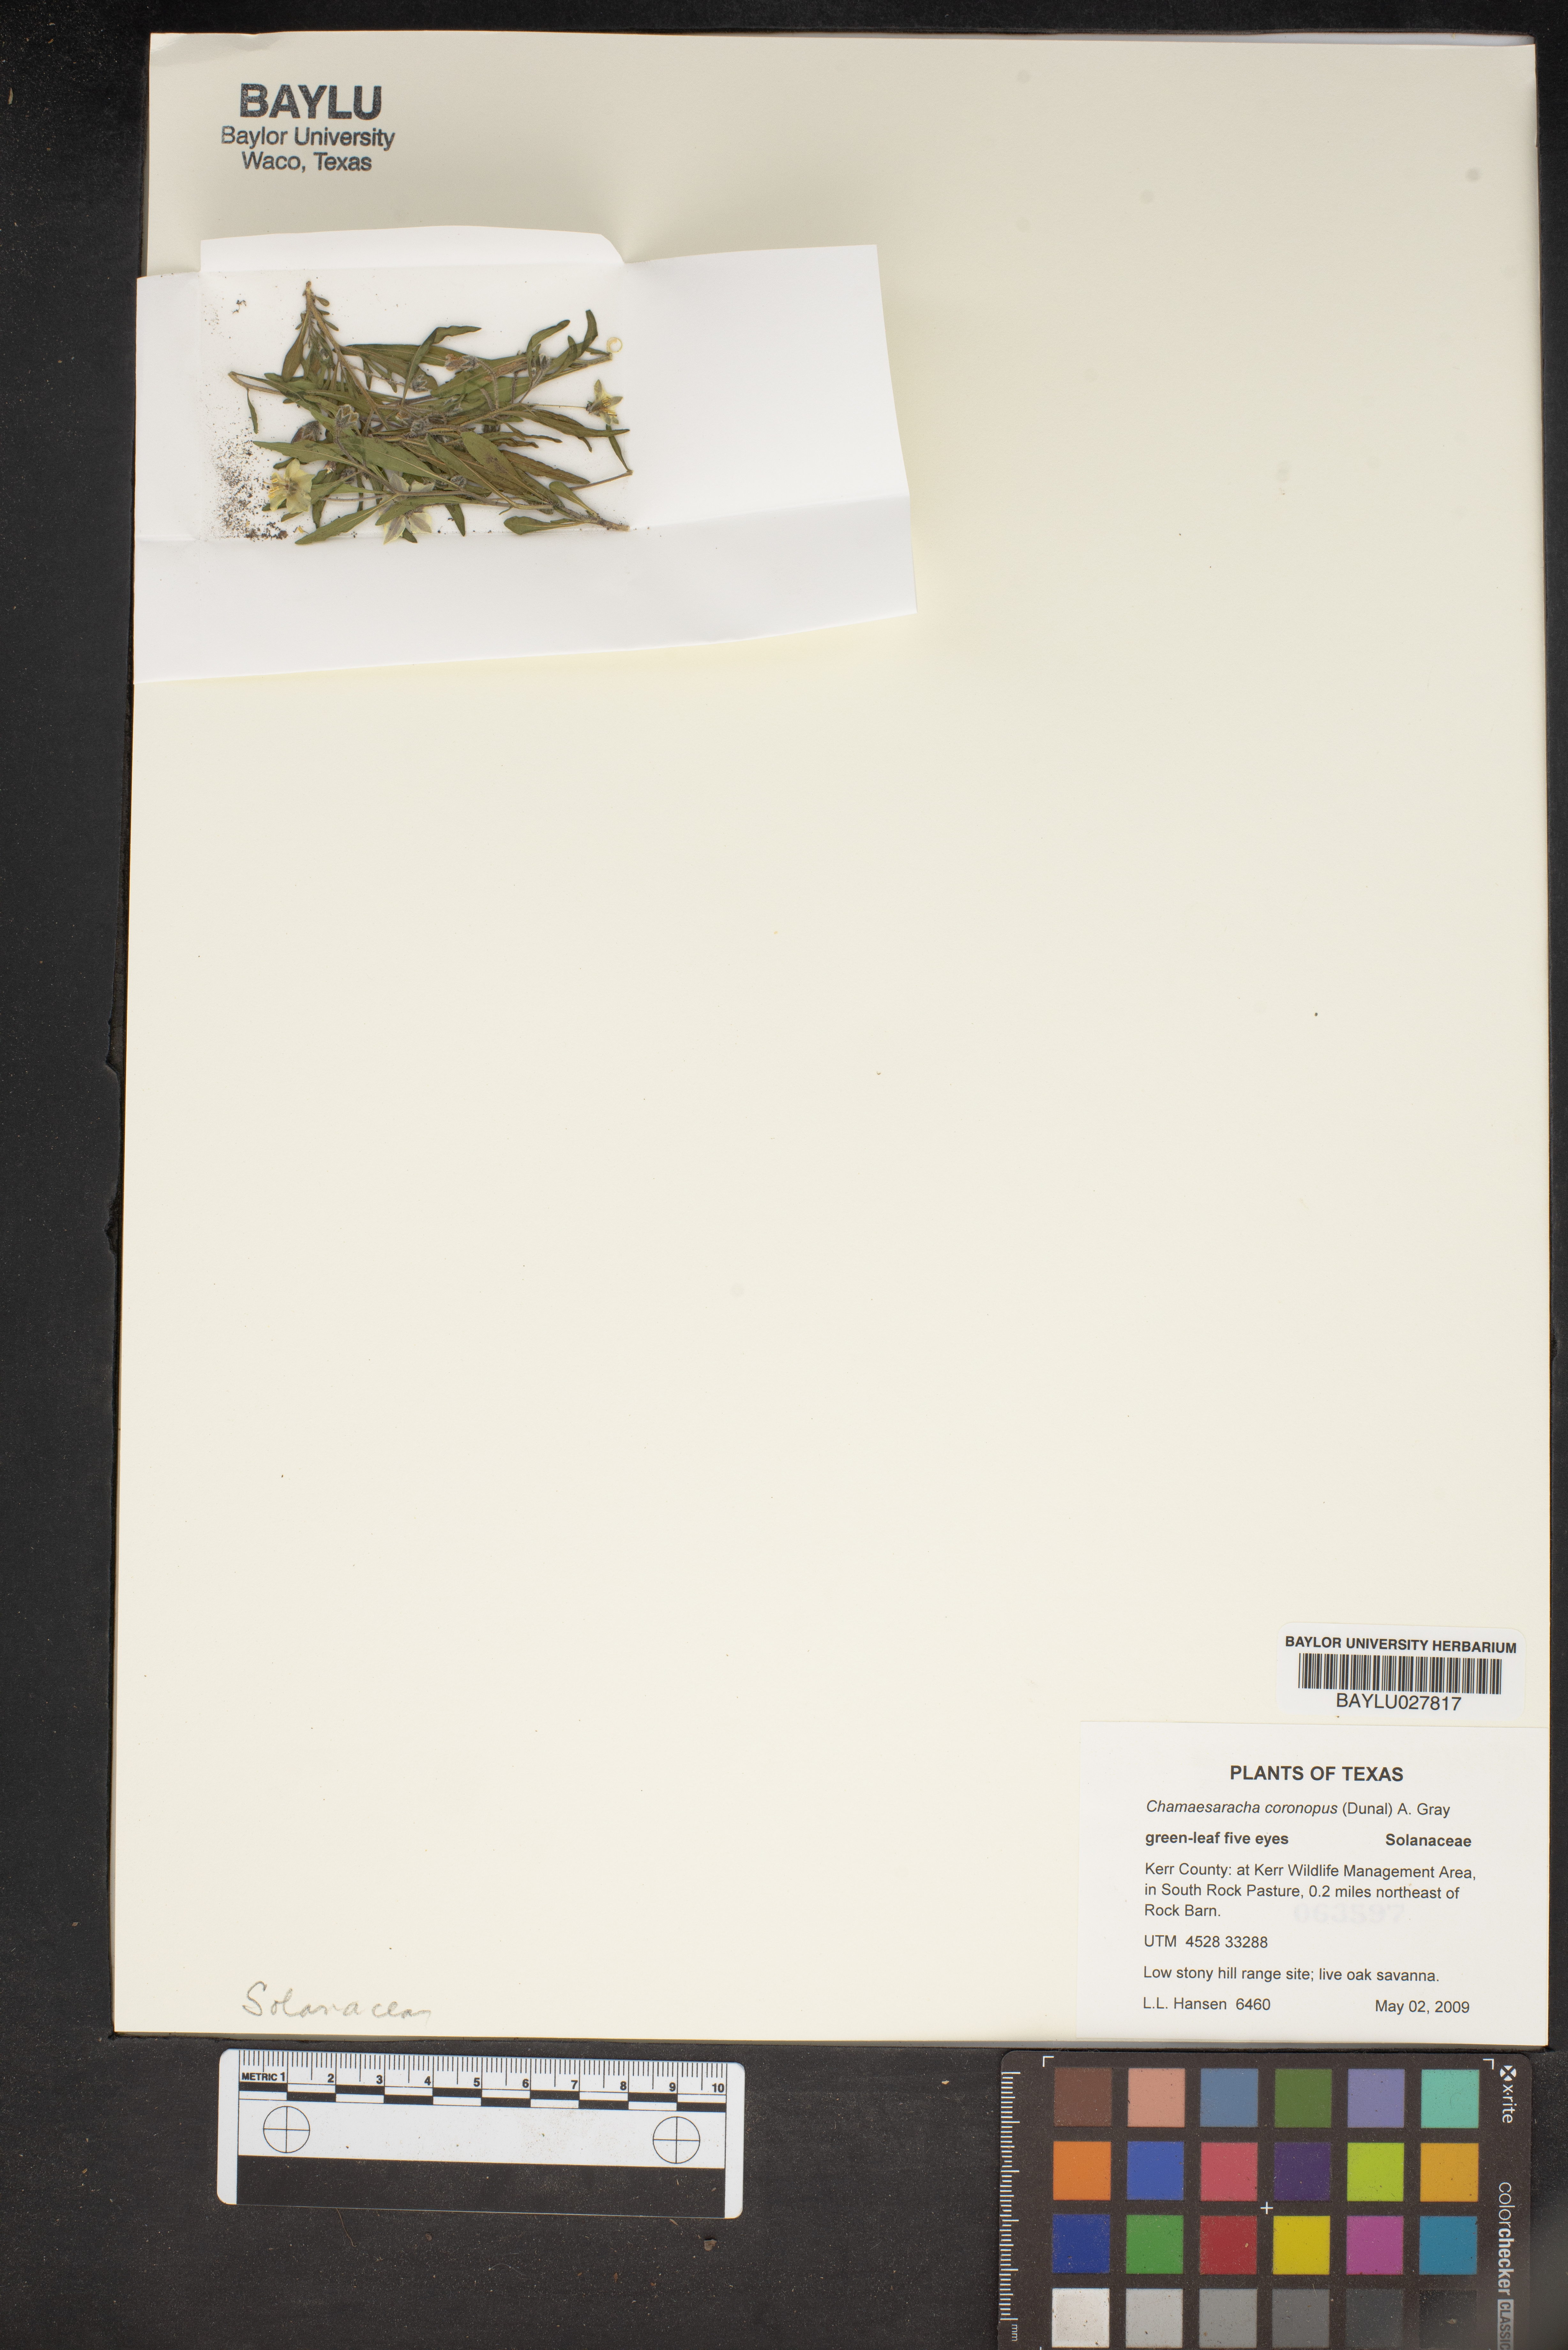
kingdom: Plantae
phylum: Tracheophyta
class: Magnoliopsida
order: Solanales
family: Solanaceae
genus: Chamaesaracha
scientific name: Chamaesaracha coronopus
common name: Smooth chamaesaracha
